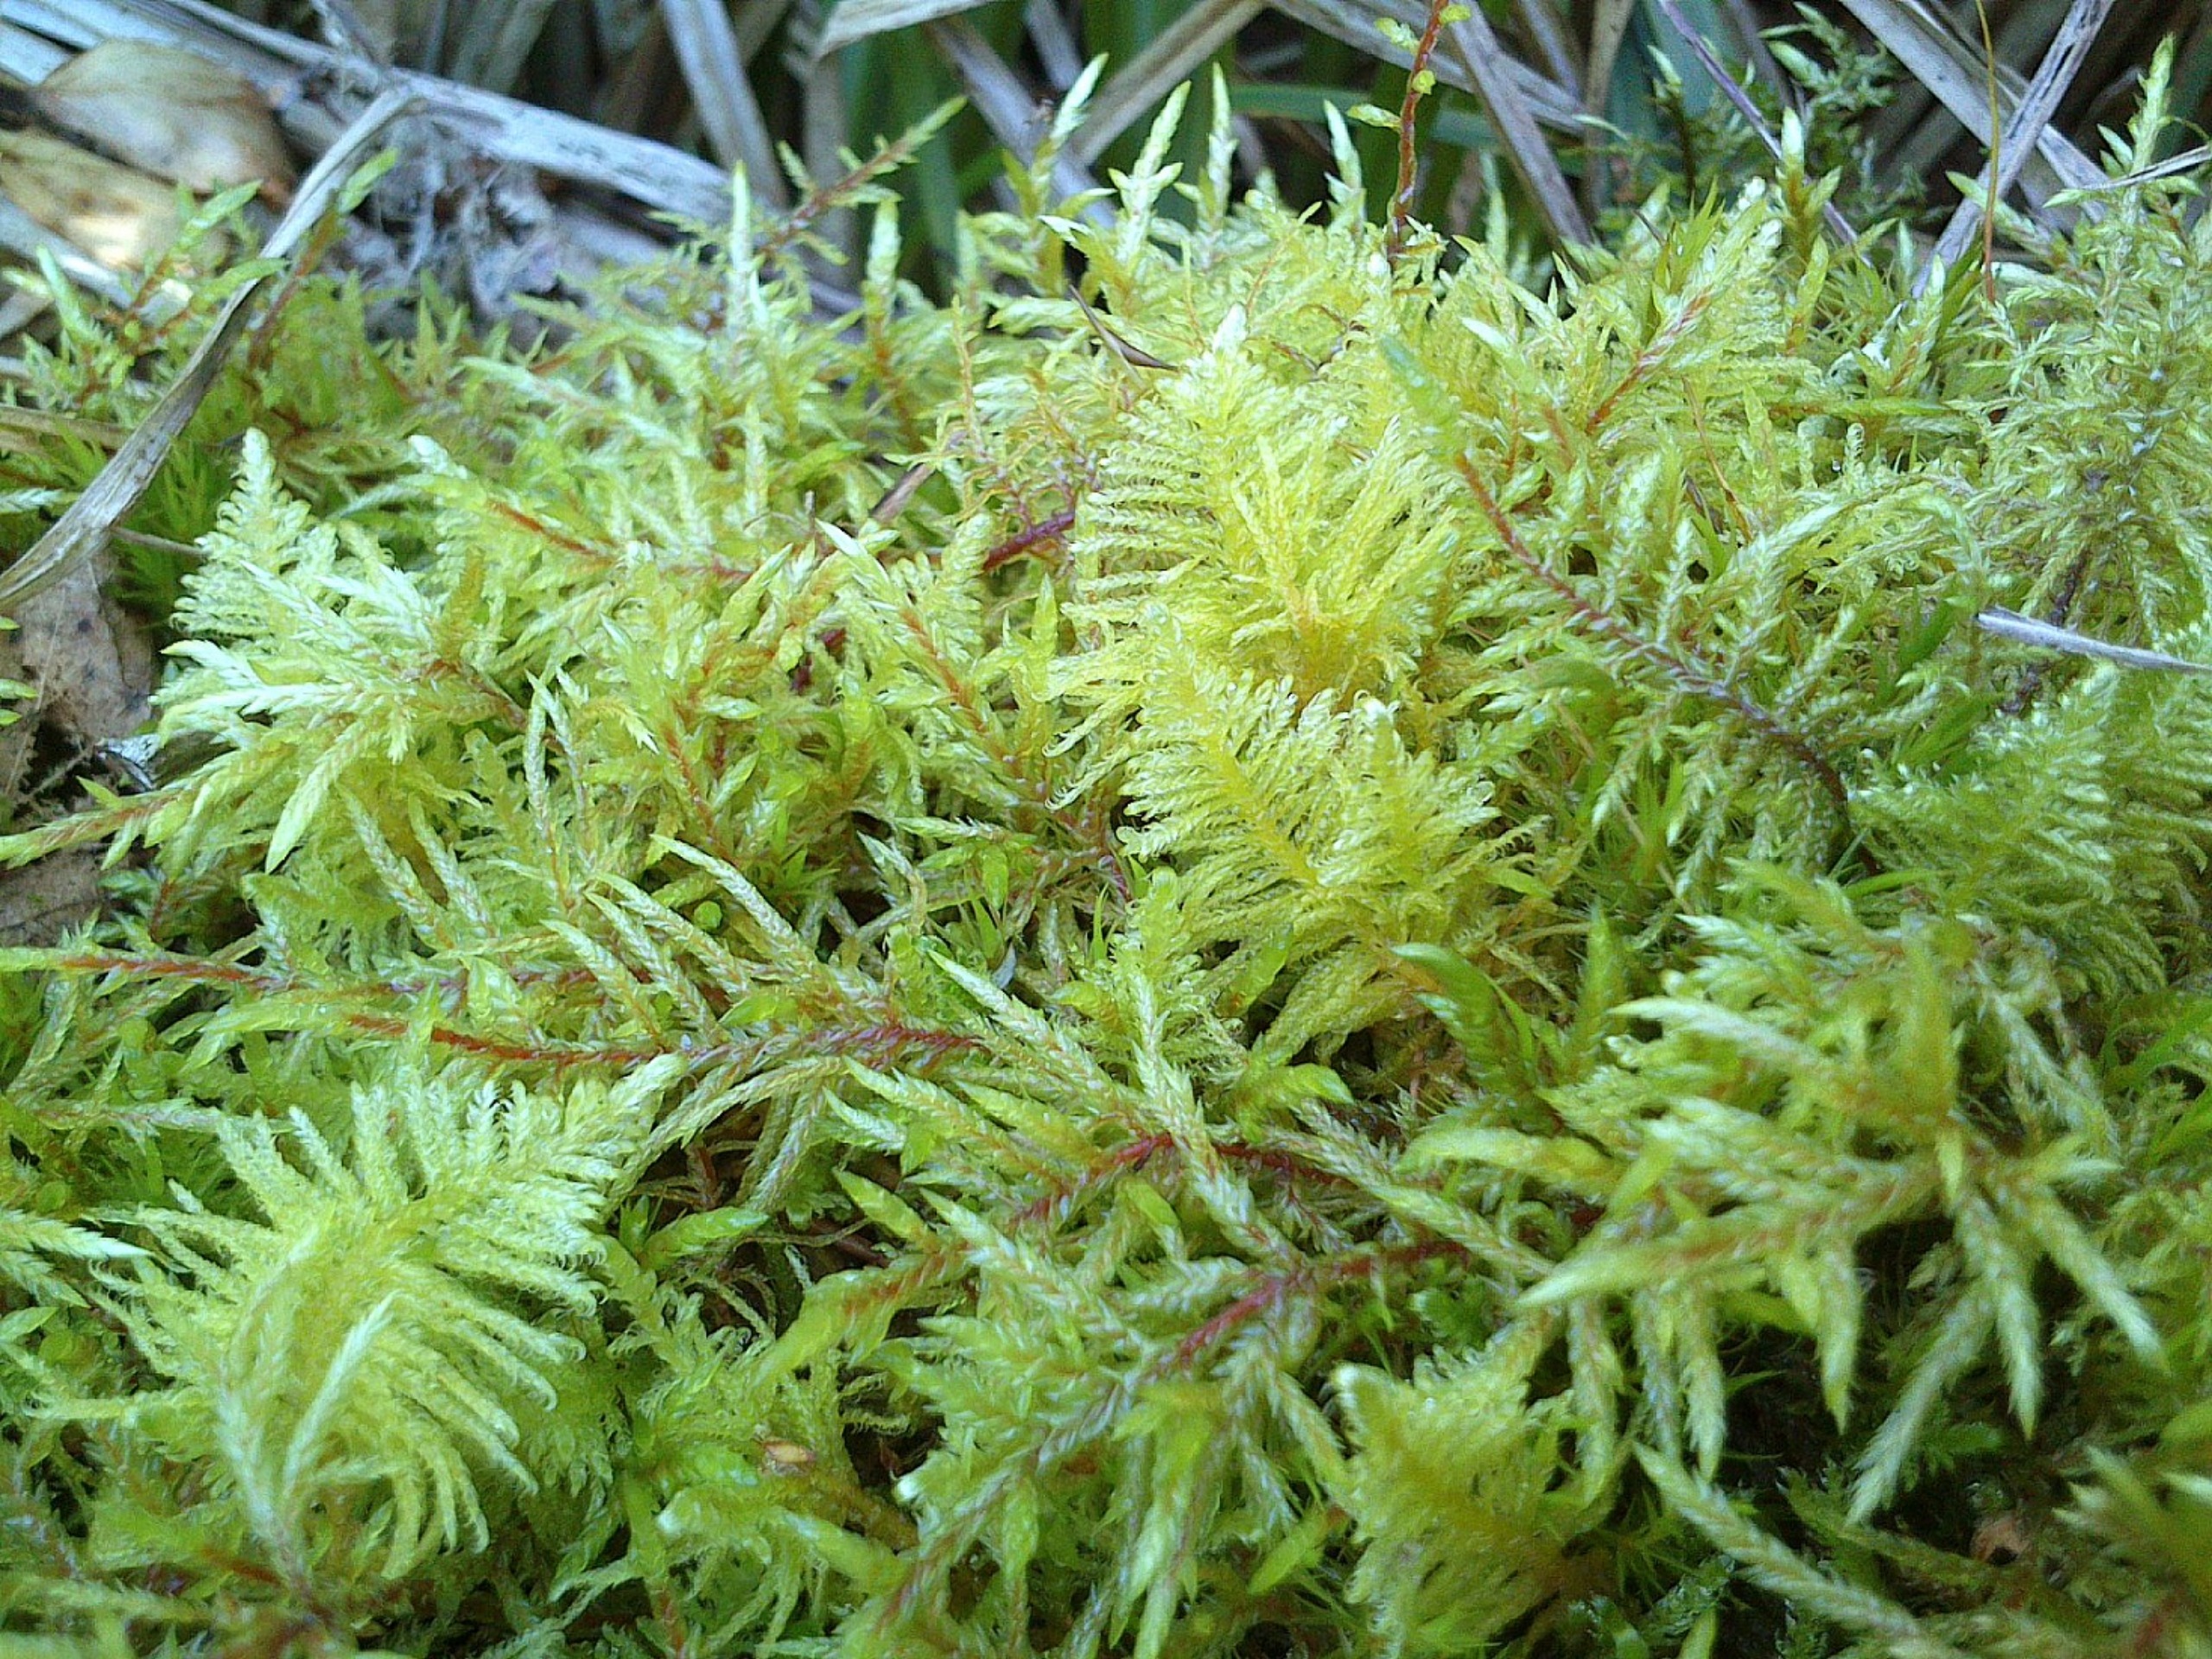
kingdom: Plantae
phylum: Bryophyta
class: Bryopsida
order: Hypnales
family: Pylaisiaceae
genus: Ptilium
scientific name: Ptilium crista-castrensis
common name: Fjer-kammos
